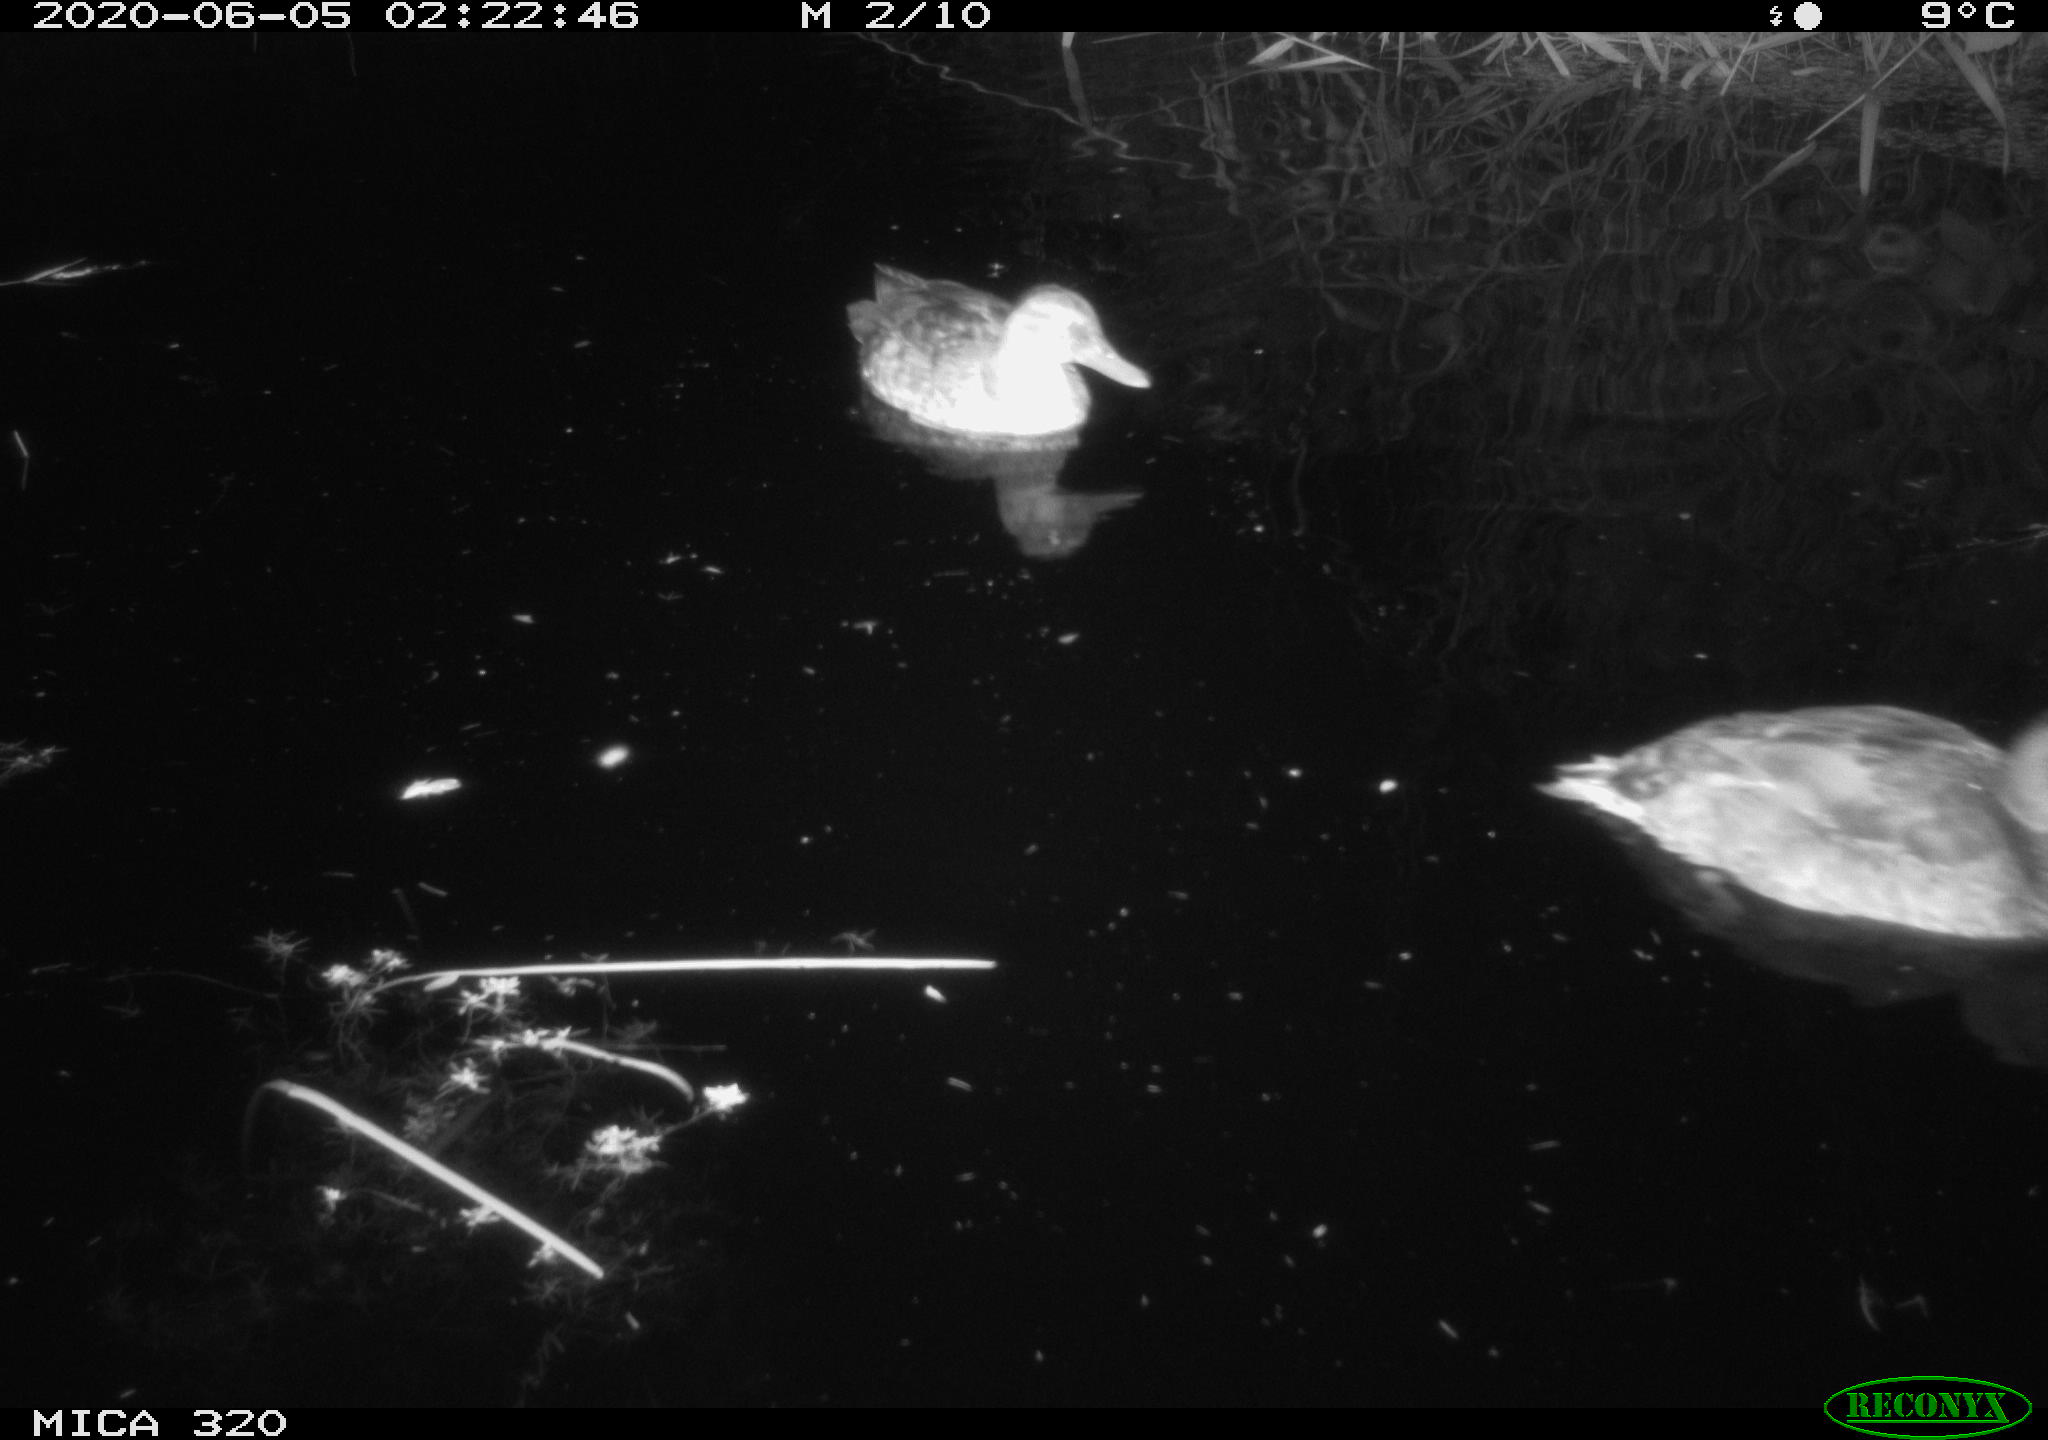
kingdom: Animalia
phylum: Chordata
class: Aves
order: Anseriformes
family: Anatidae
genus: Anas
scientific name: Anas platyrhynchos
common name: Mallard
